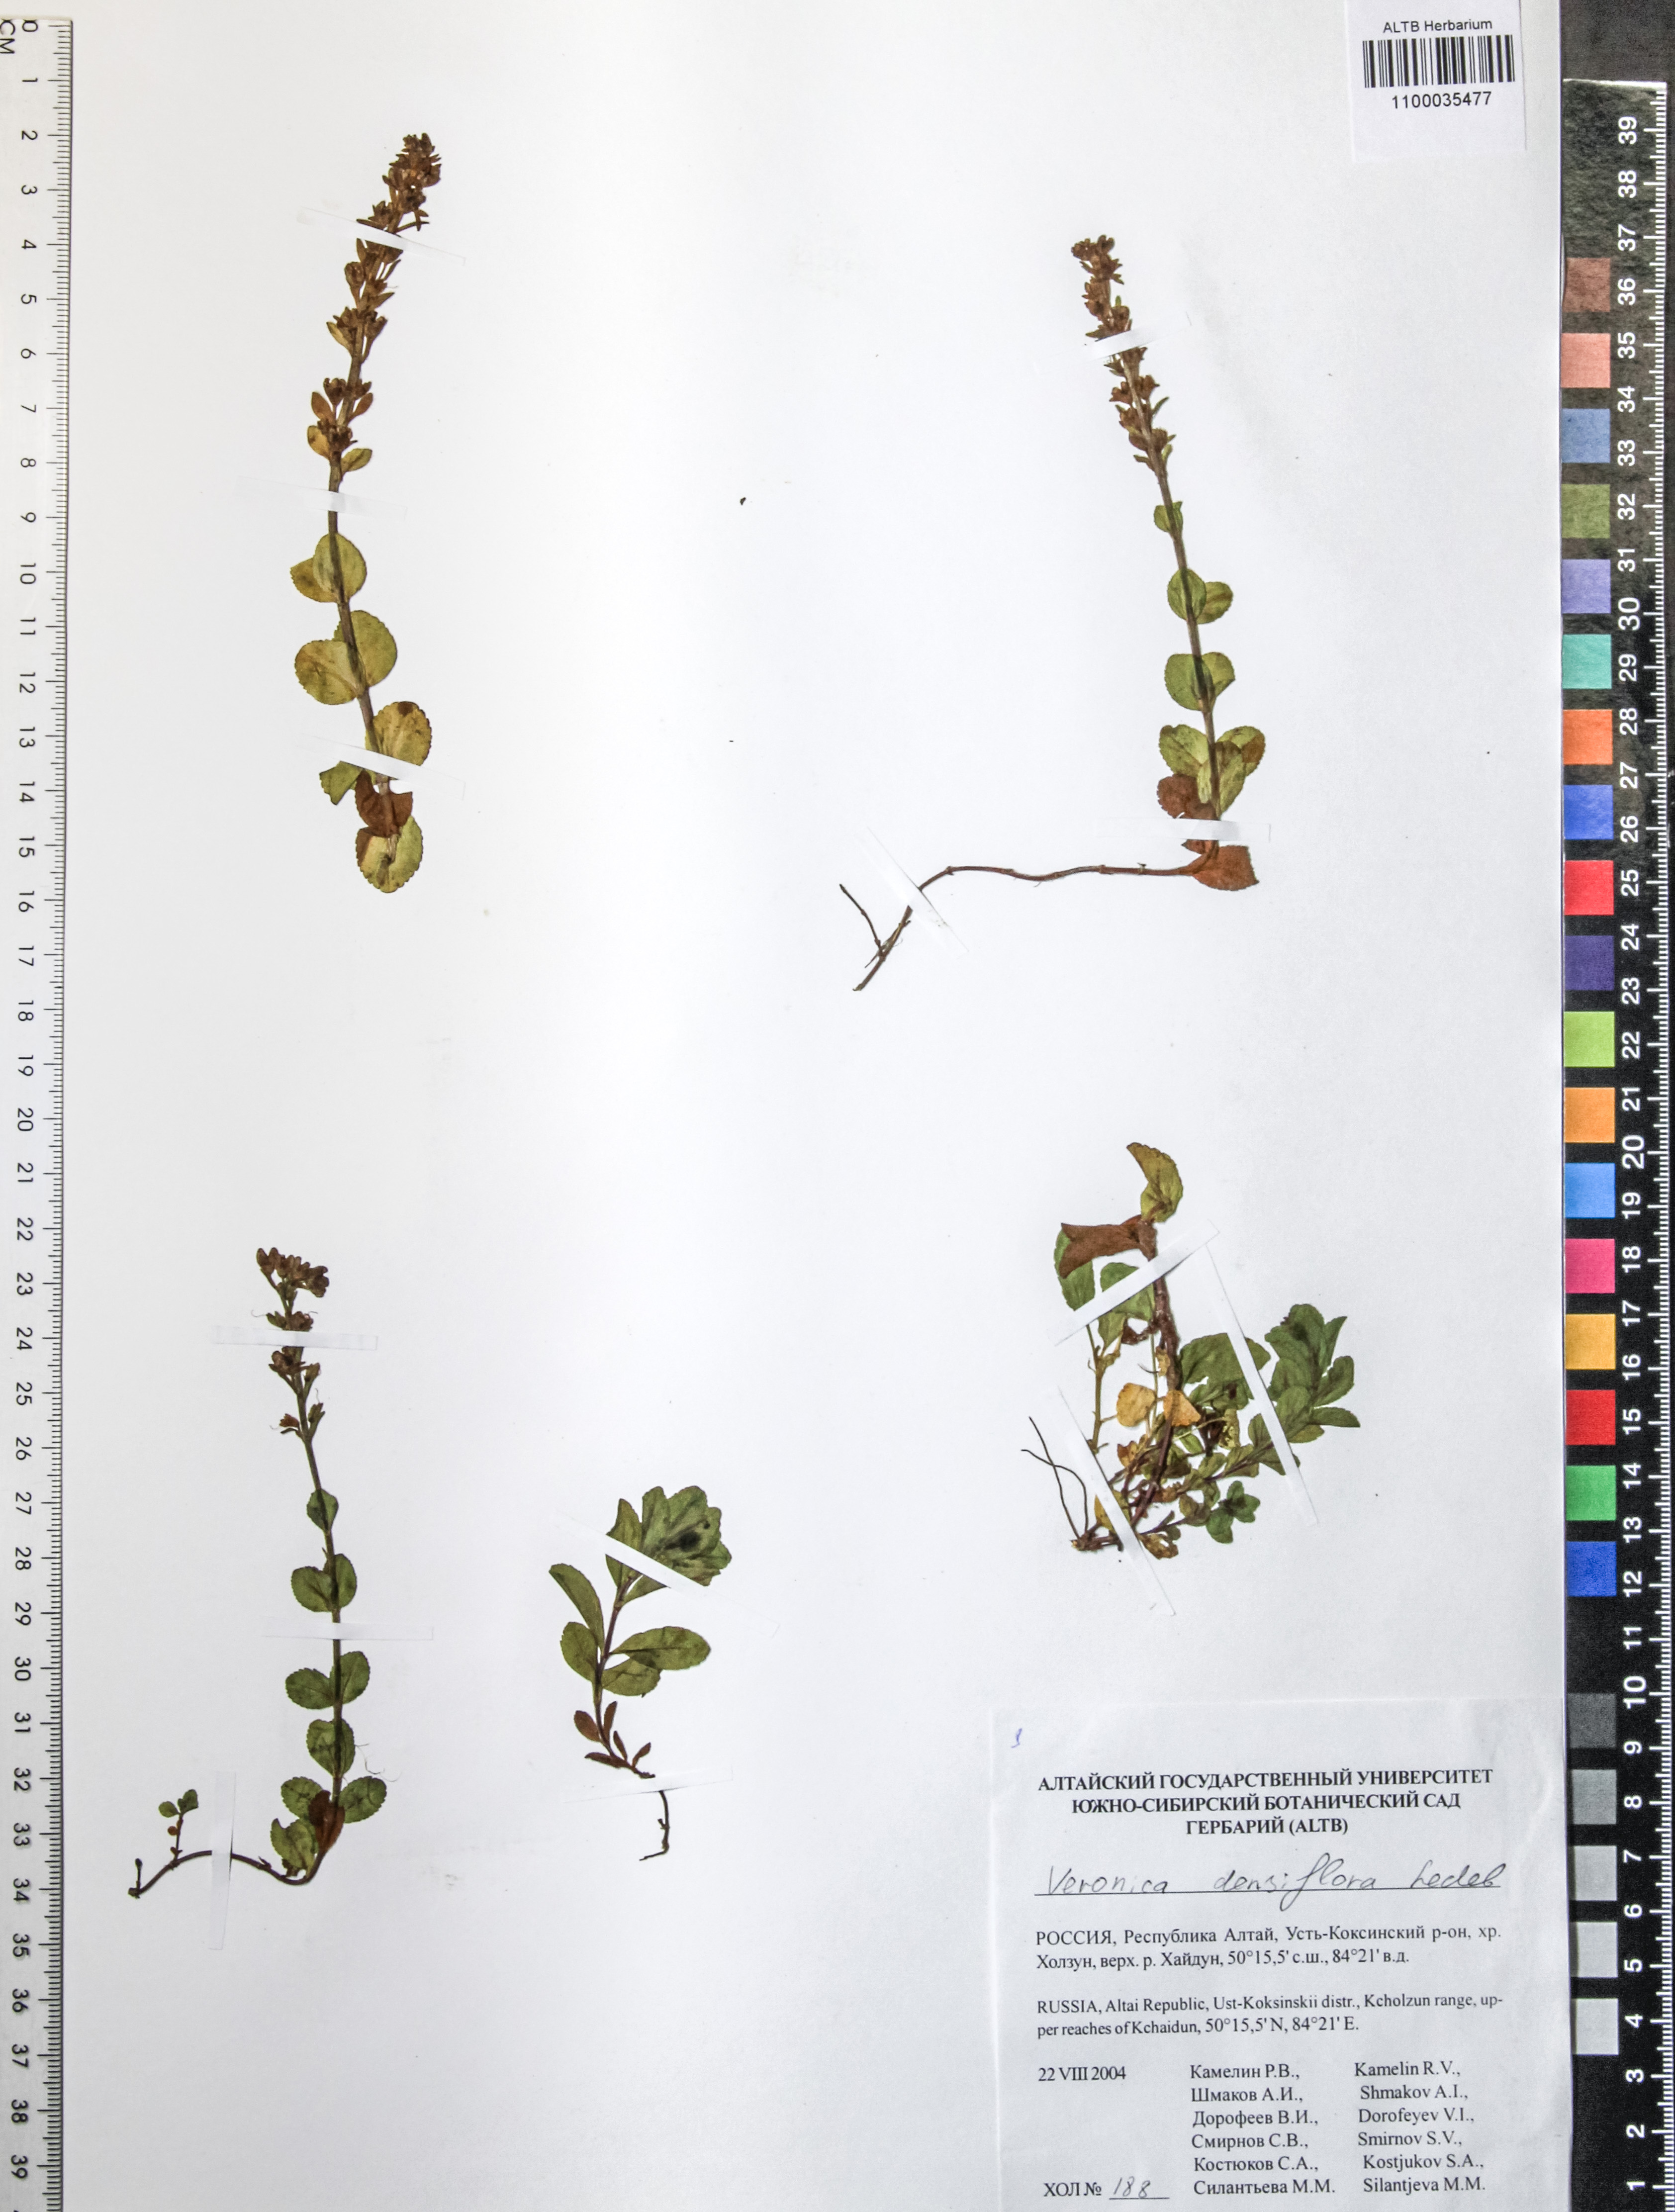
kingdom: Plantae
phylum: Tracheophyta
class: Magnoliopsida
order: Lamiales
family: Plantaginaceae
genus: Veronica
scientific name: Veronica densiflora
